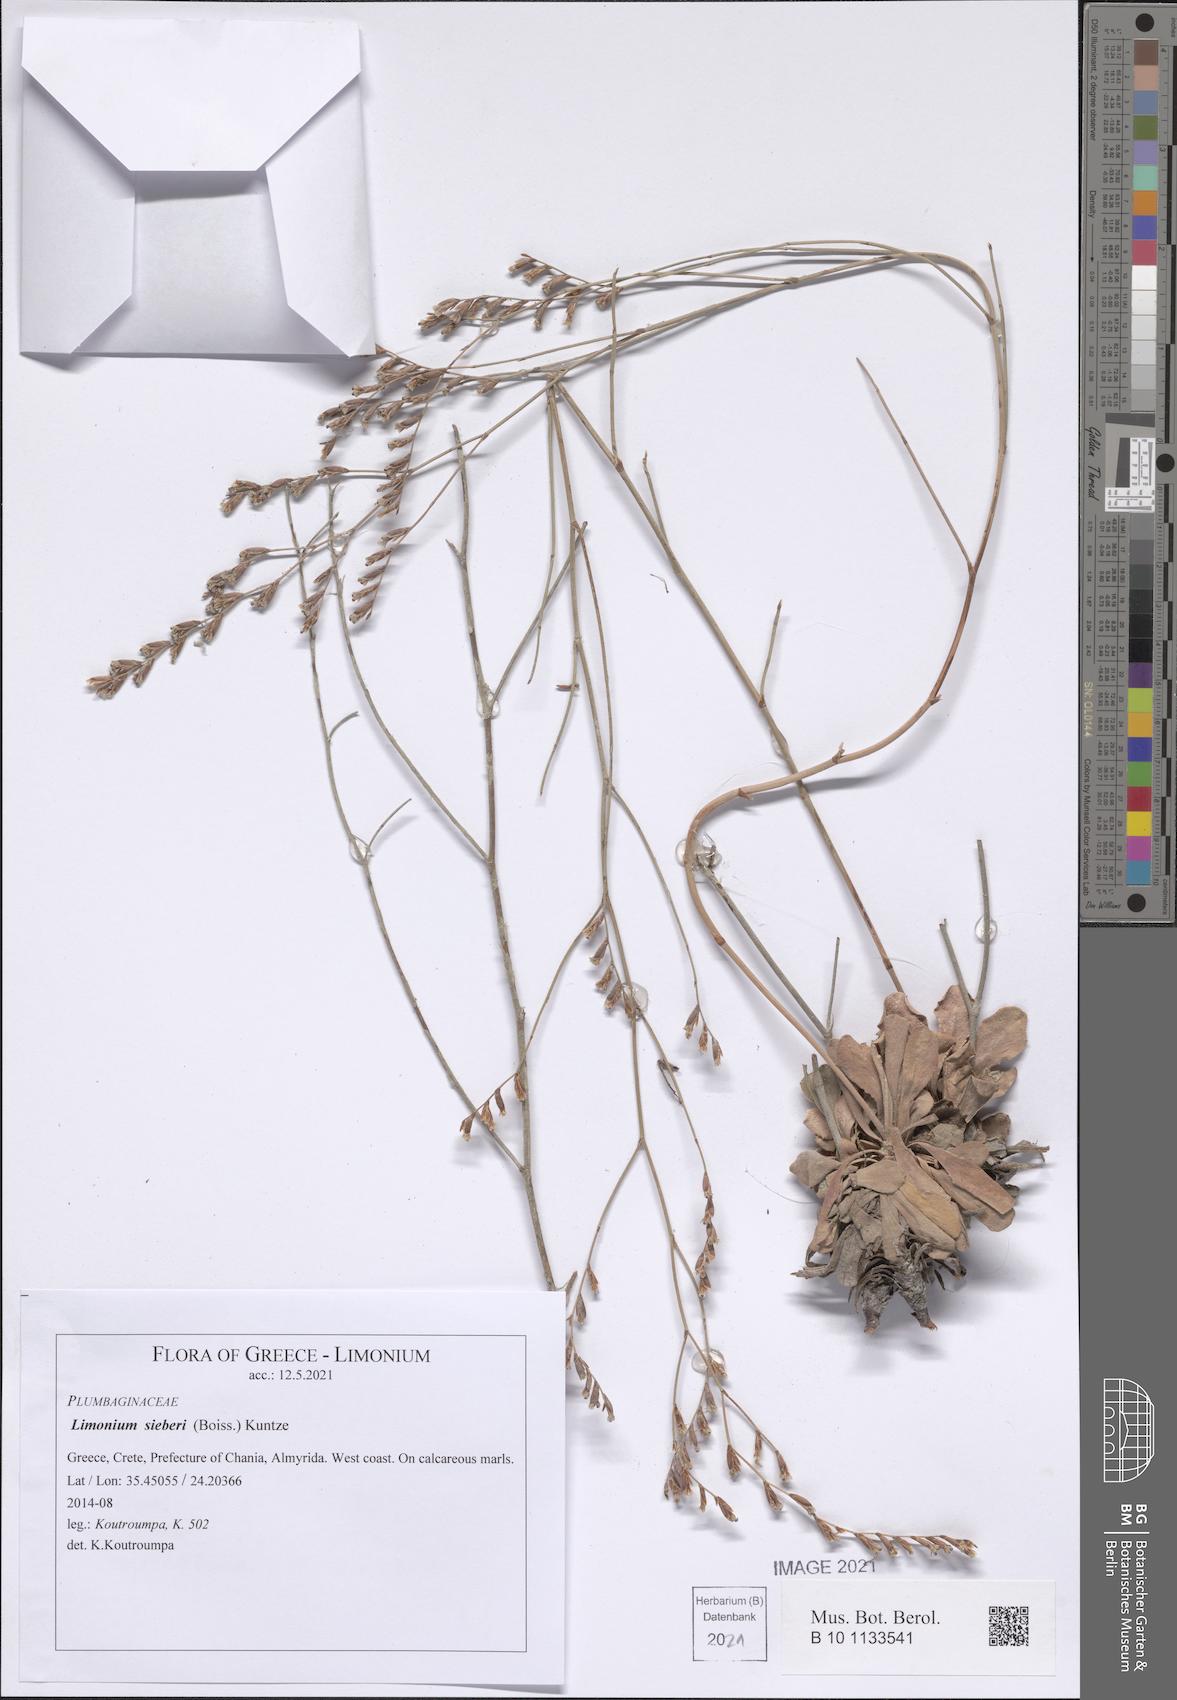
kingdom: Plantae
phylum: Tracheophyta
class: Magnoliopsida
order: Caryophyllales
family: Plumbaginaceae
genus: Limonium
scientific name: Limonium sieberi
